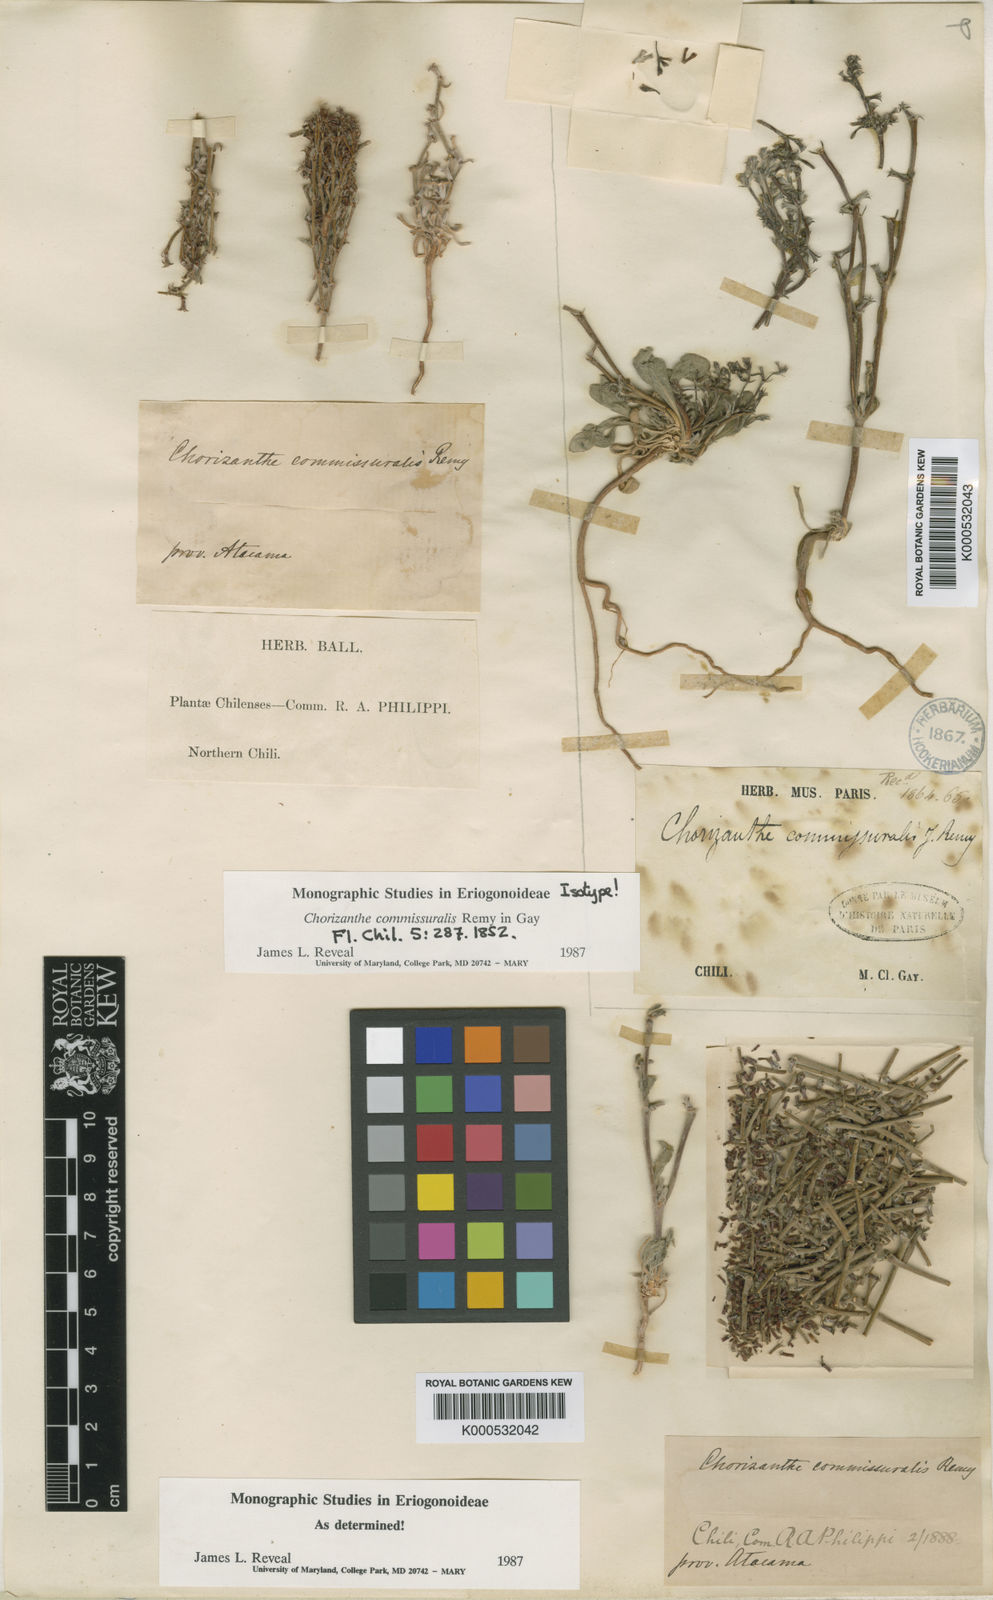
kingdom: Plantae
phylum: Tracheophyta
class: Magnoliopsida
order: Caryophyllales
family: Polygonaceae
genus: Chorizanthe
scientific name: Chorizanthe commissuralis
